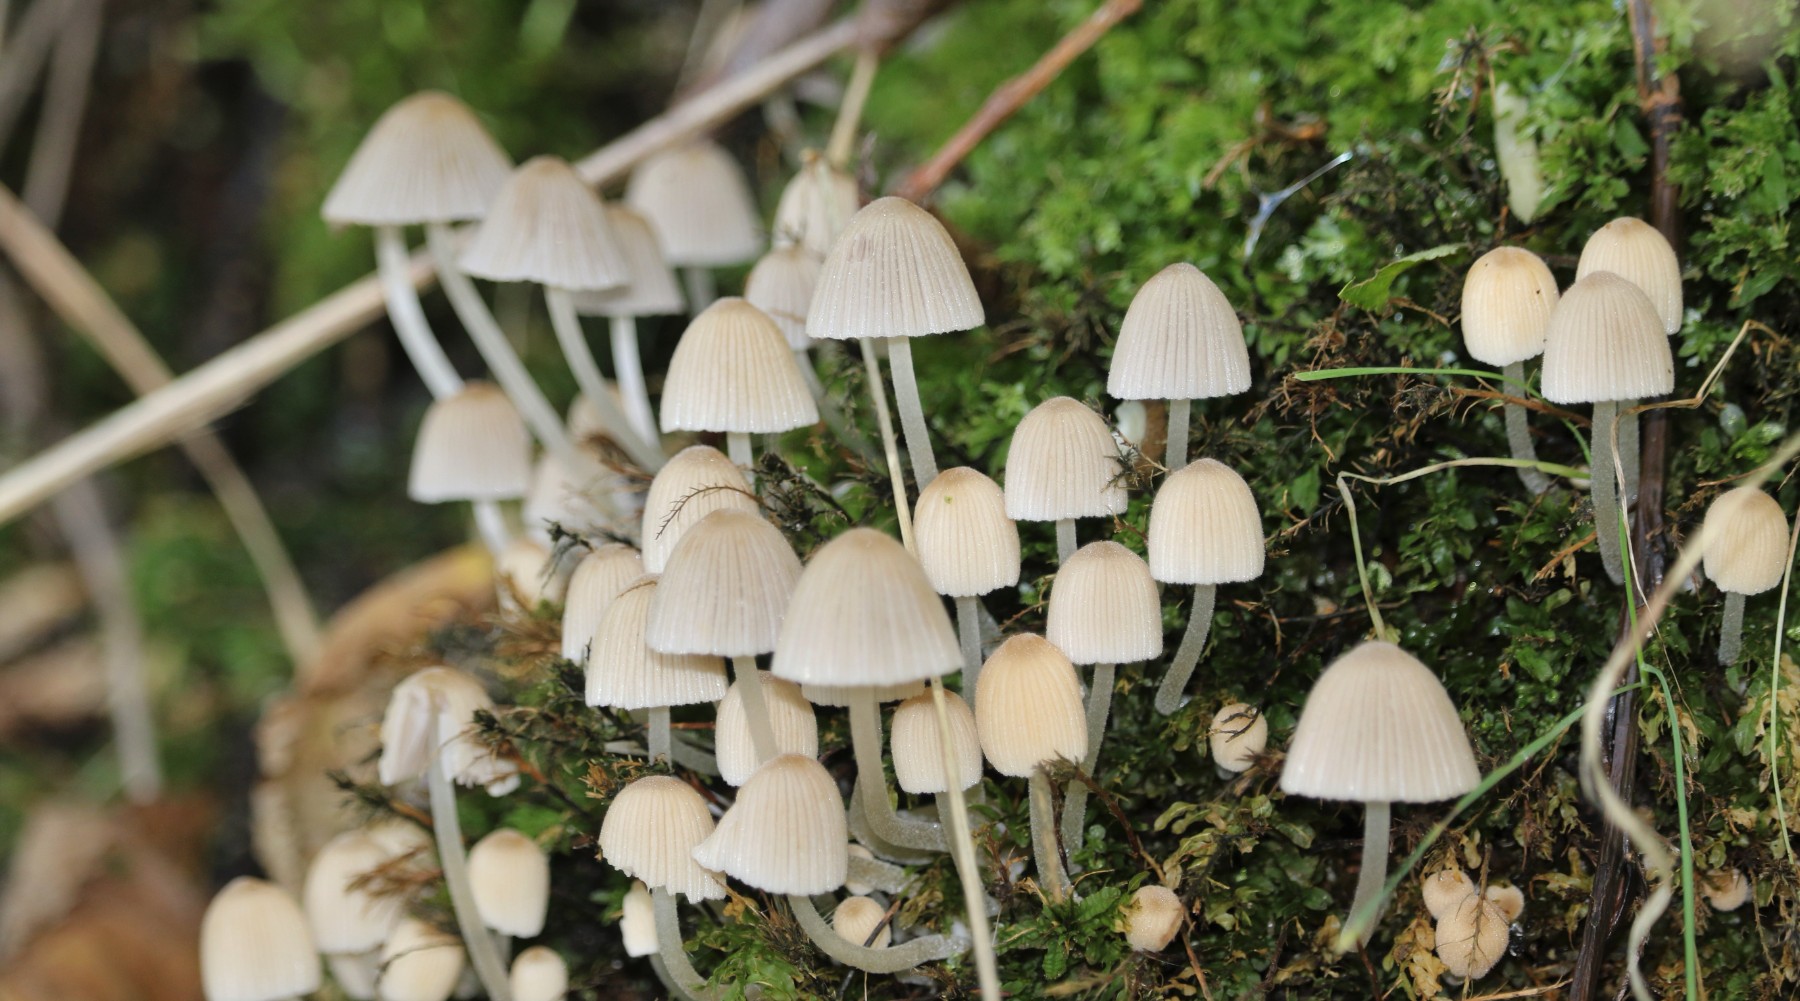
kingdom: Fungi
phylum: Basidiomycota
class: Agaricomycetes
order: Agaricales
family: Psathyrellaceae
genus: Coprinellus
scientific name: Coprinellus disseminatus
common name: bredsået blækhat
